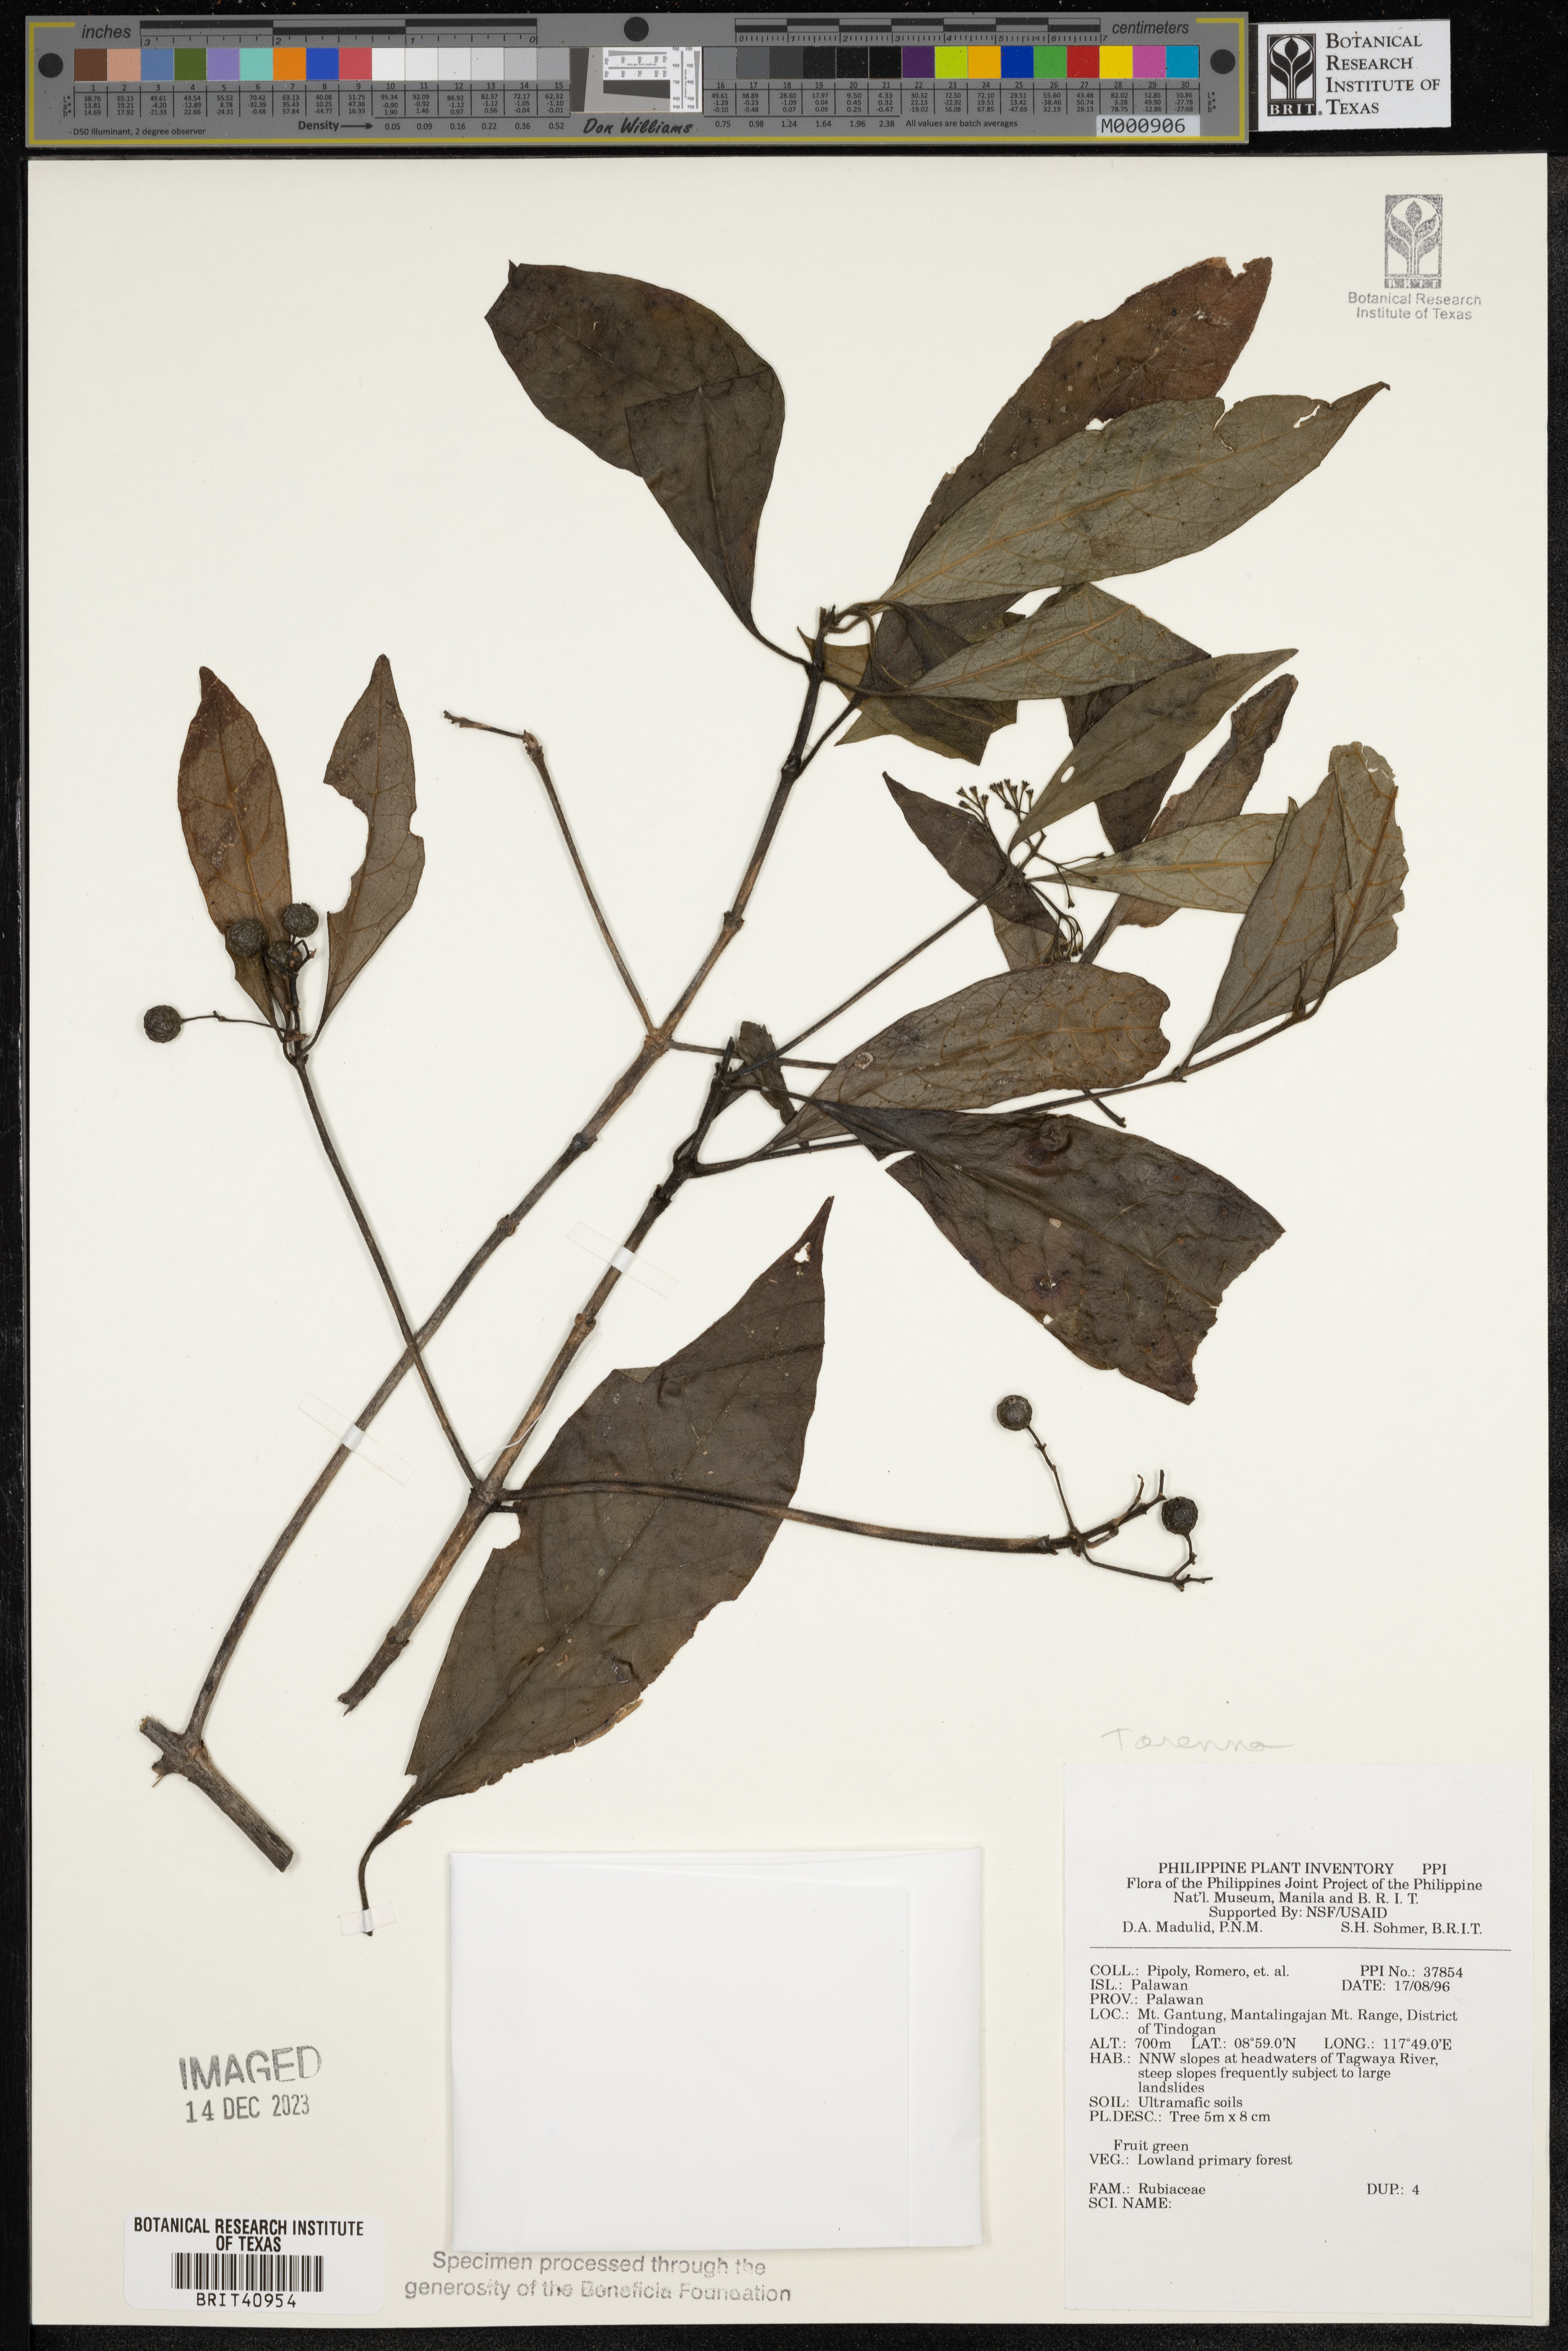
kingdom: Plantae
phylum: Tracheophyta
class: Magnoliopsida
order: Gentianales
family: Rubiaceae
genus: Tarenna
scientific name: Tarenna
